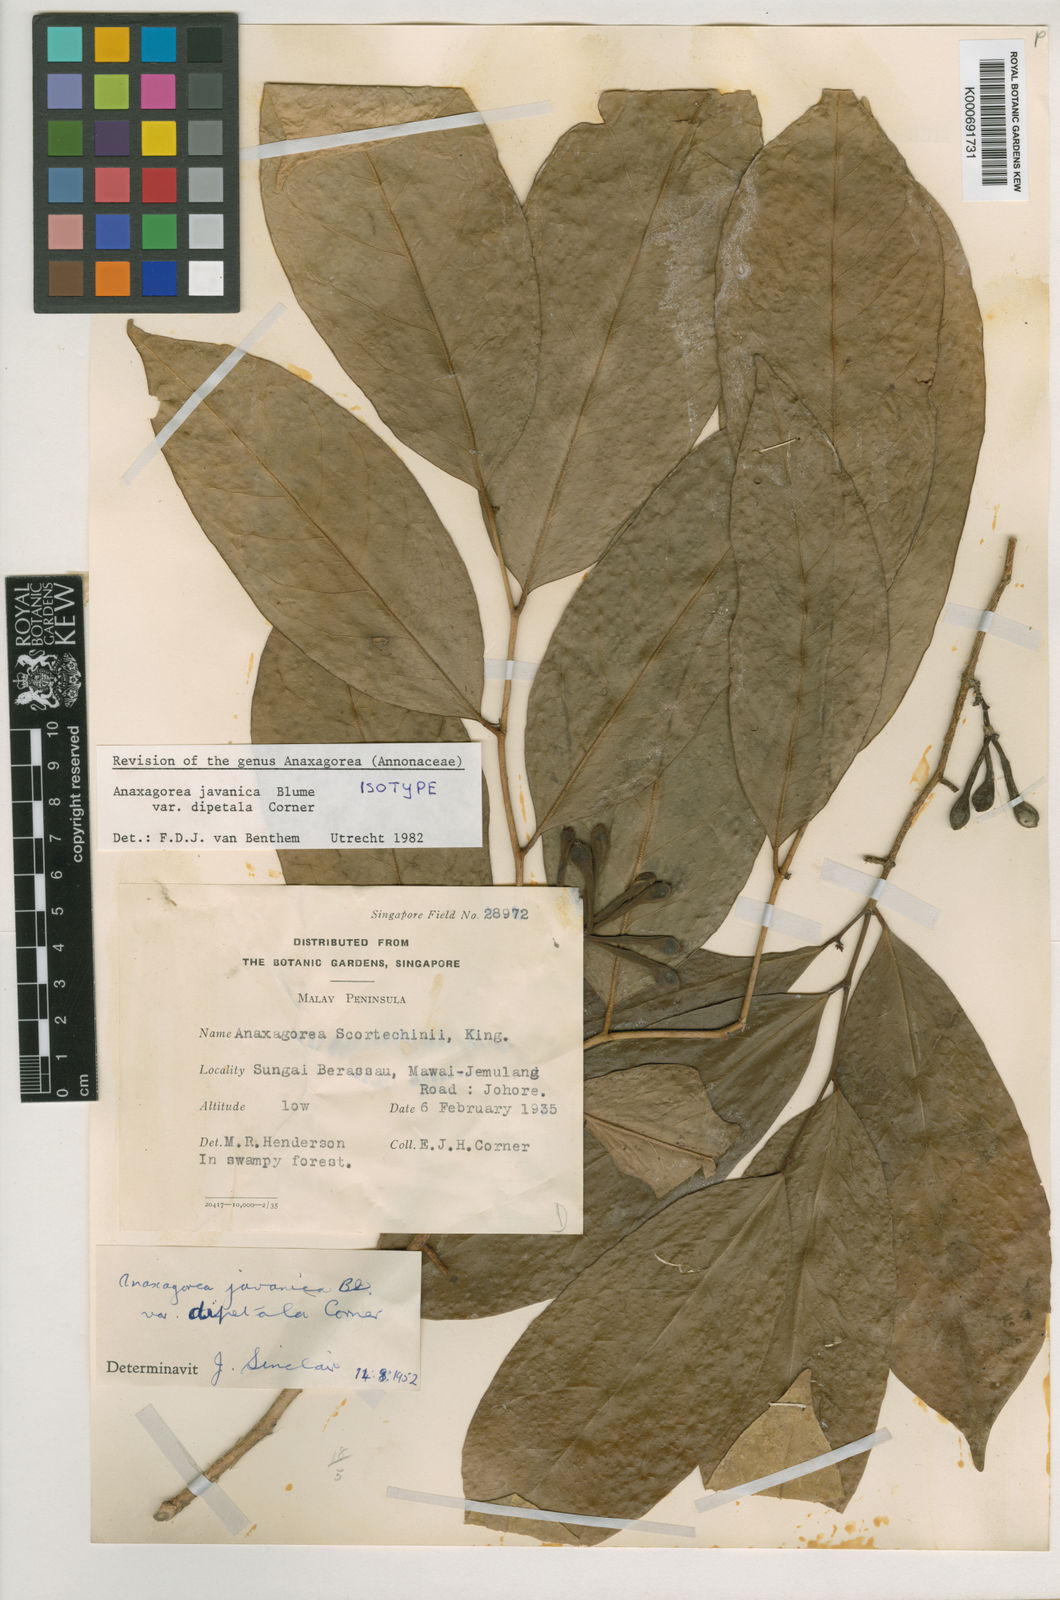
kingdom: Plantae
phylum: Tracheophyta
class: Magnoliopsida
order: Magnoliales
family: Annonaceae
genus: Anaxagorea
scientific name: Anaxagorea javanica
